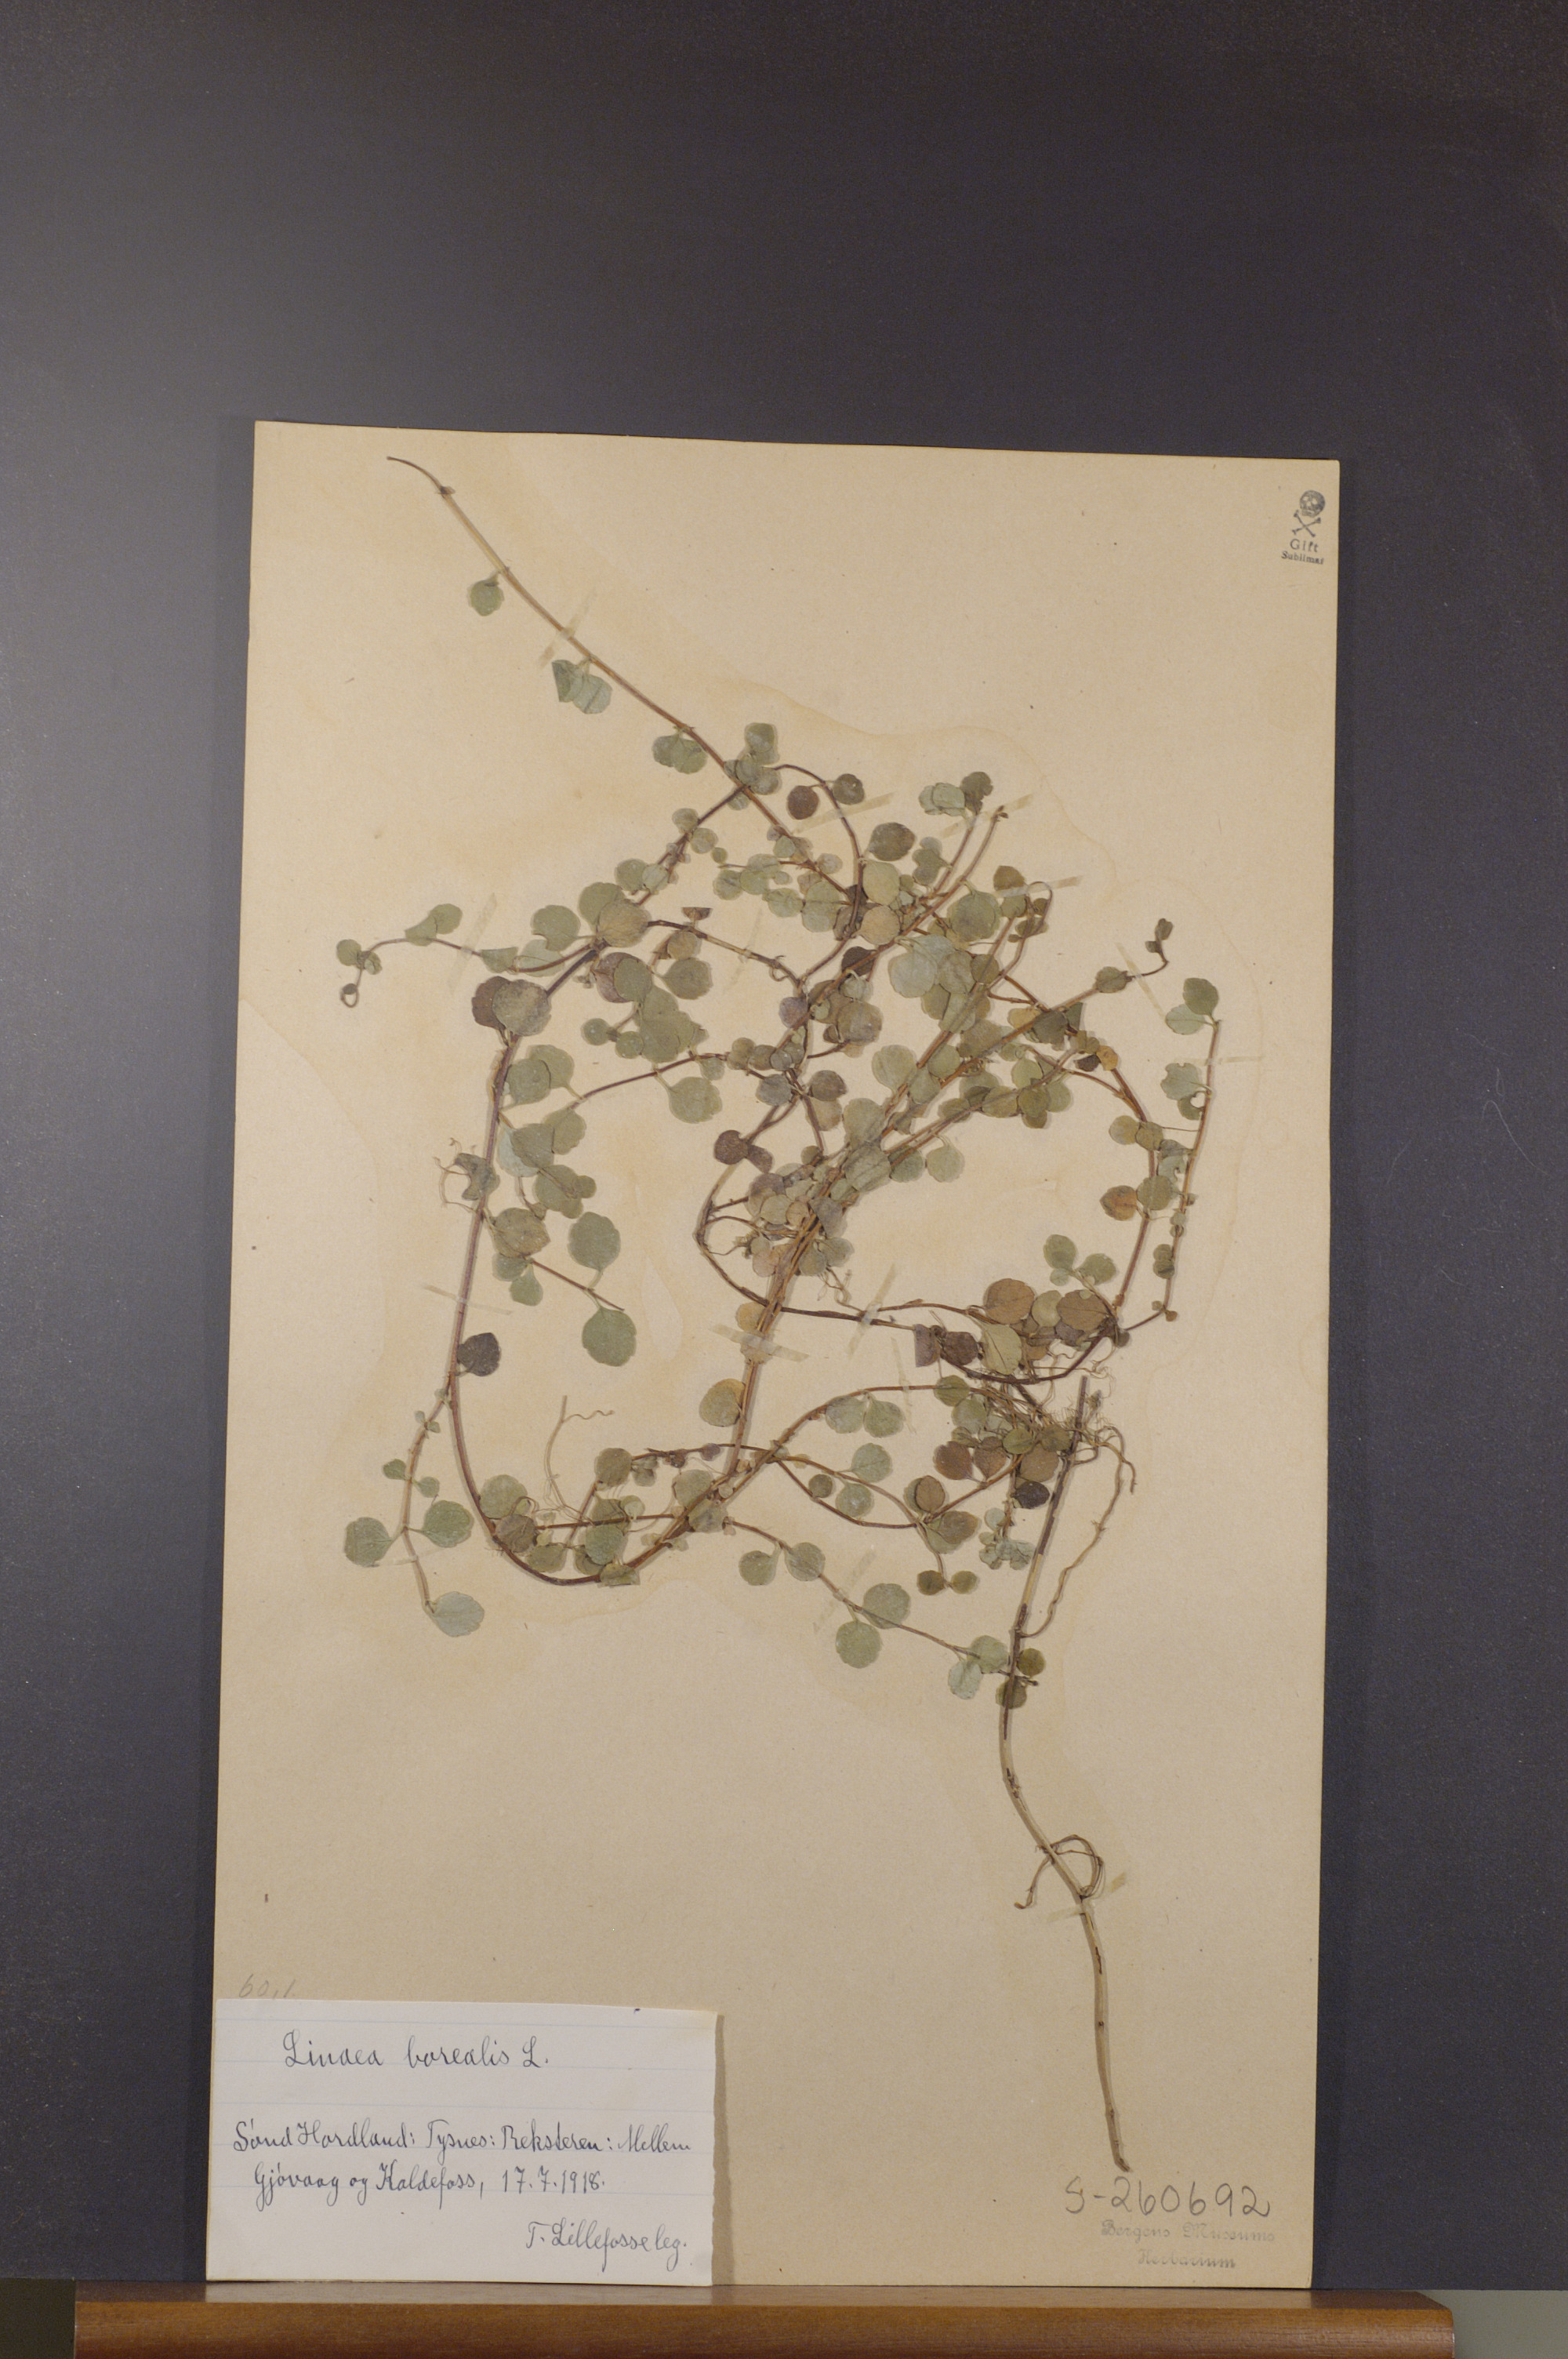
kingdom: Plantae
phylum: Tracheophyta
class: Magnoliopsida
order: Dipsacales
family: Caprifoliaceae
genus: Linnaea
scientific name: Linnaea borealis
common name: Twinflower
